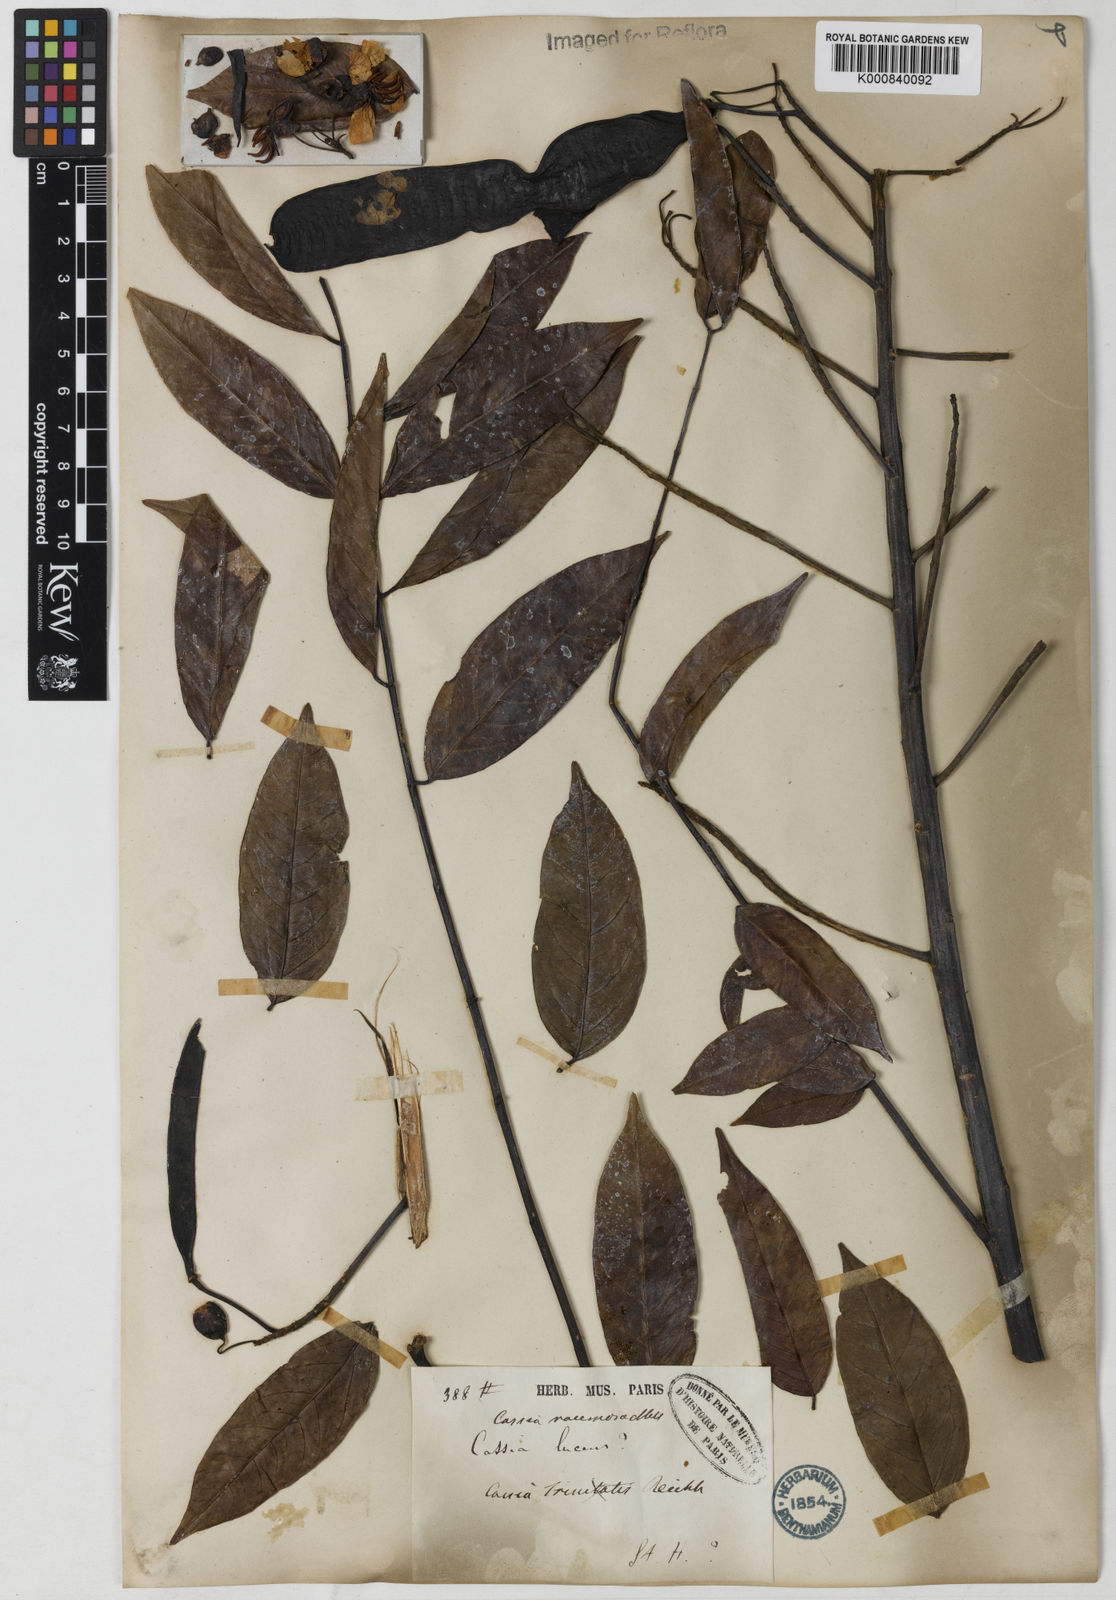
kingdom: Plantae
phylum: Tracheophyta
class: Magnoliopsida
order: Fabales
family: Fabaceae
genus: Senna
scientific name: Senna silvestris
